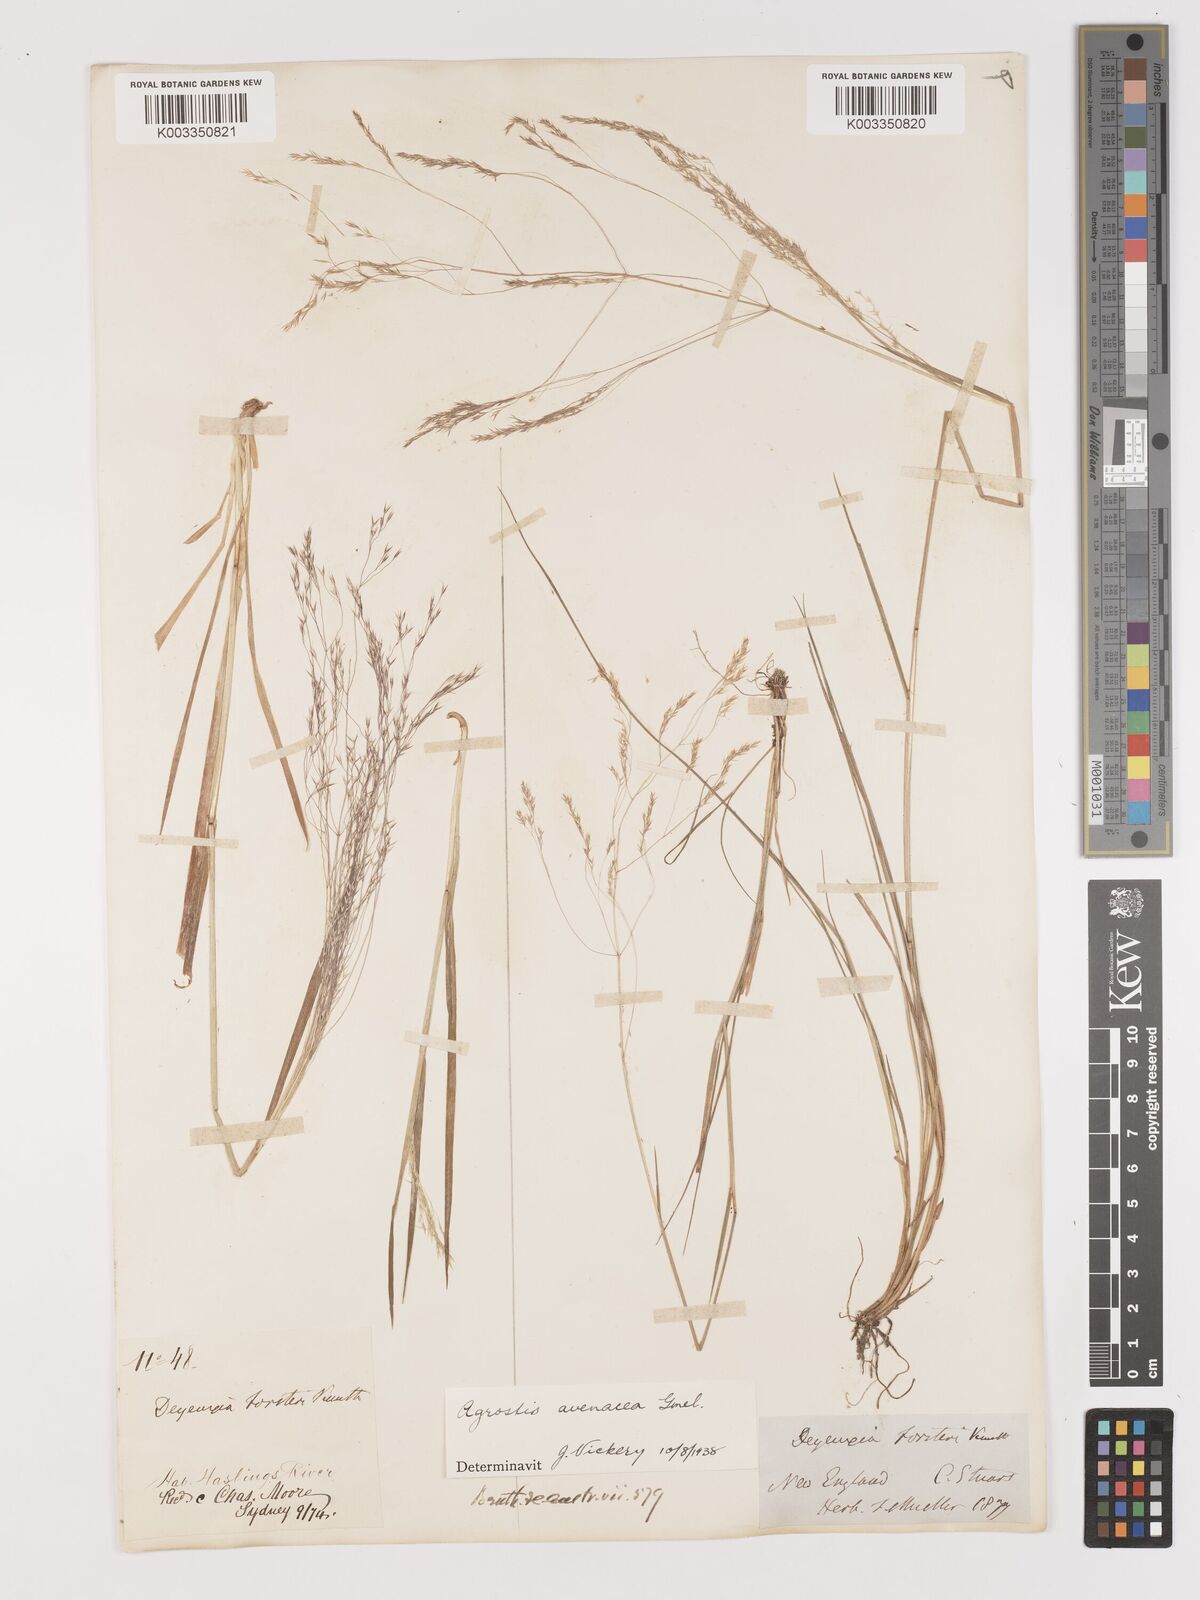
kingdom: Plantae
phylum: Tracheophyta
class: Liliopsida
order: Poales
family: Poaceae
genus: Lachnagrostis
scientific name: Lachnagrostis filiformis
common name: Bentgrass
